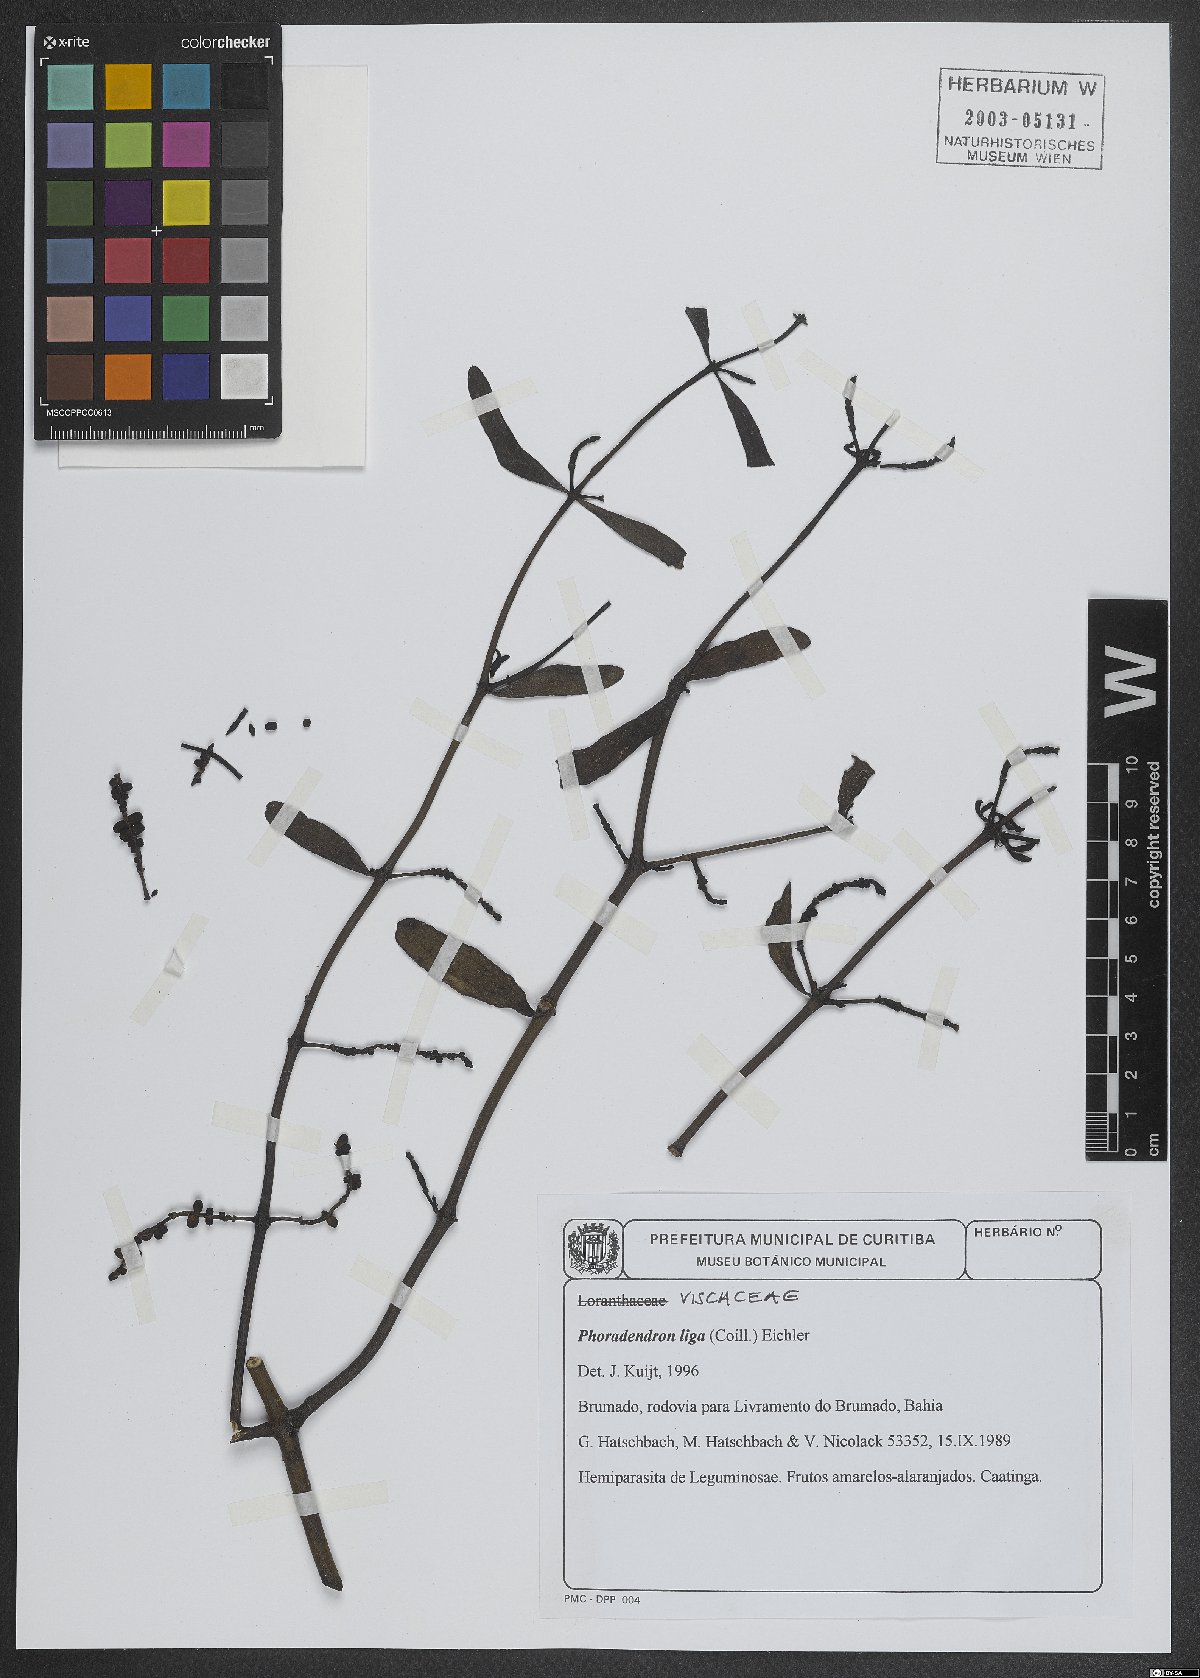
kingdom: Plantae
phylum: Tracheophyta
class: Magnoliopsida
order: Santalales
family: Viscaceae
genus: Phoradendron
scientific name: Phoradendron liga
